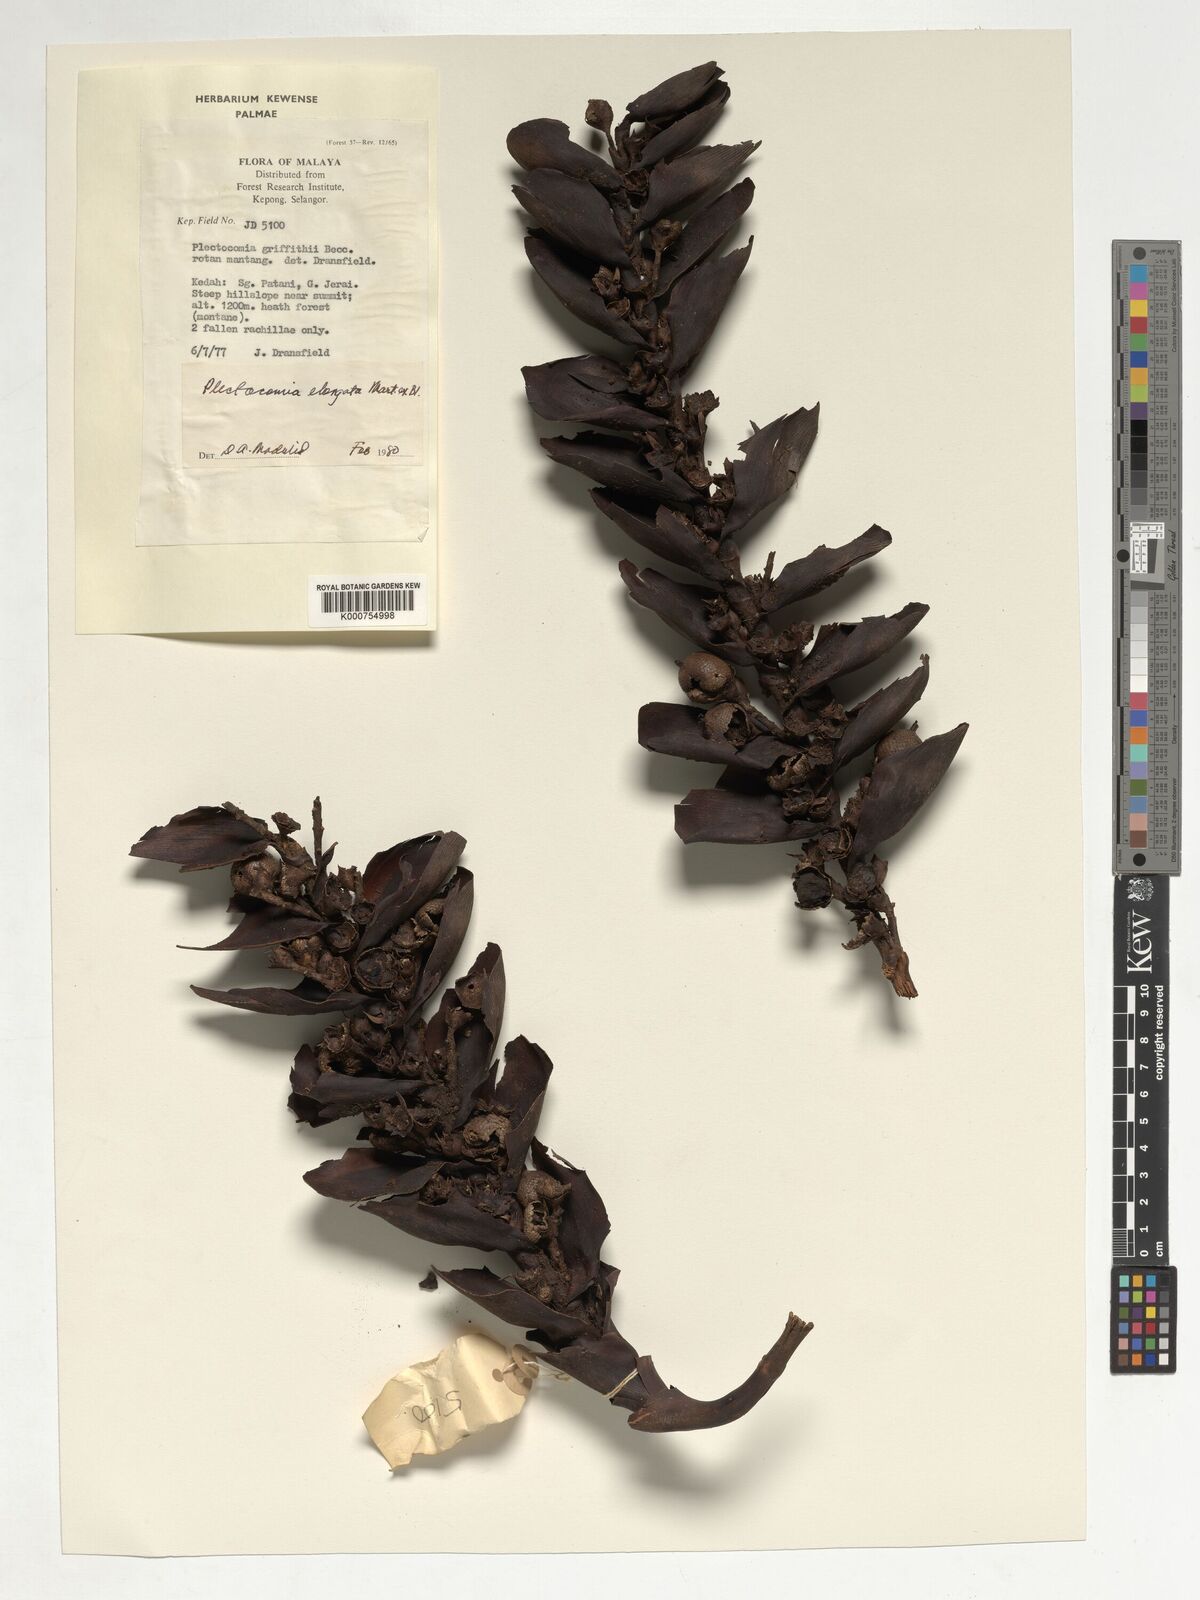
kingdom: Plantae
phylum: Tracheophyta
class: Liliopsida
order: Arecales
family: Arecaceae
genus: Plectocomia
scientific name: Plectocomia elongata
